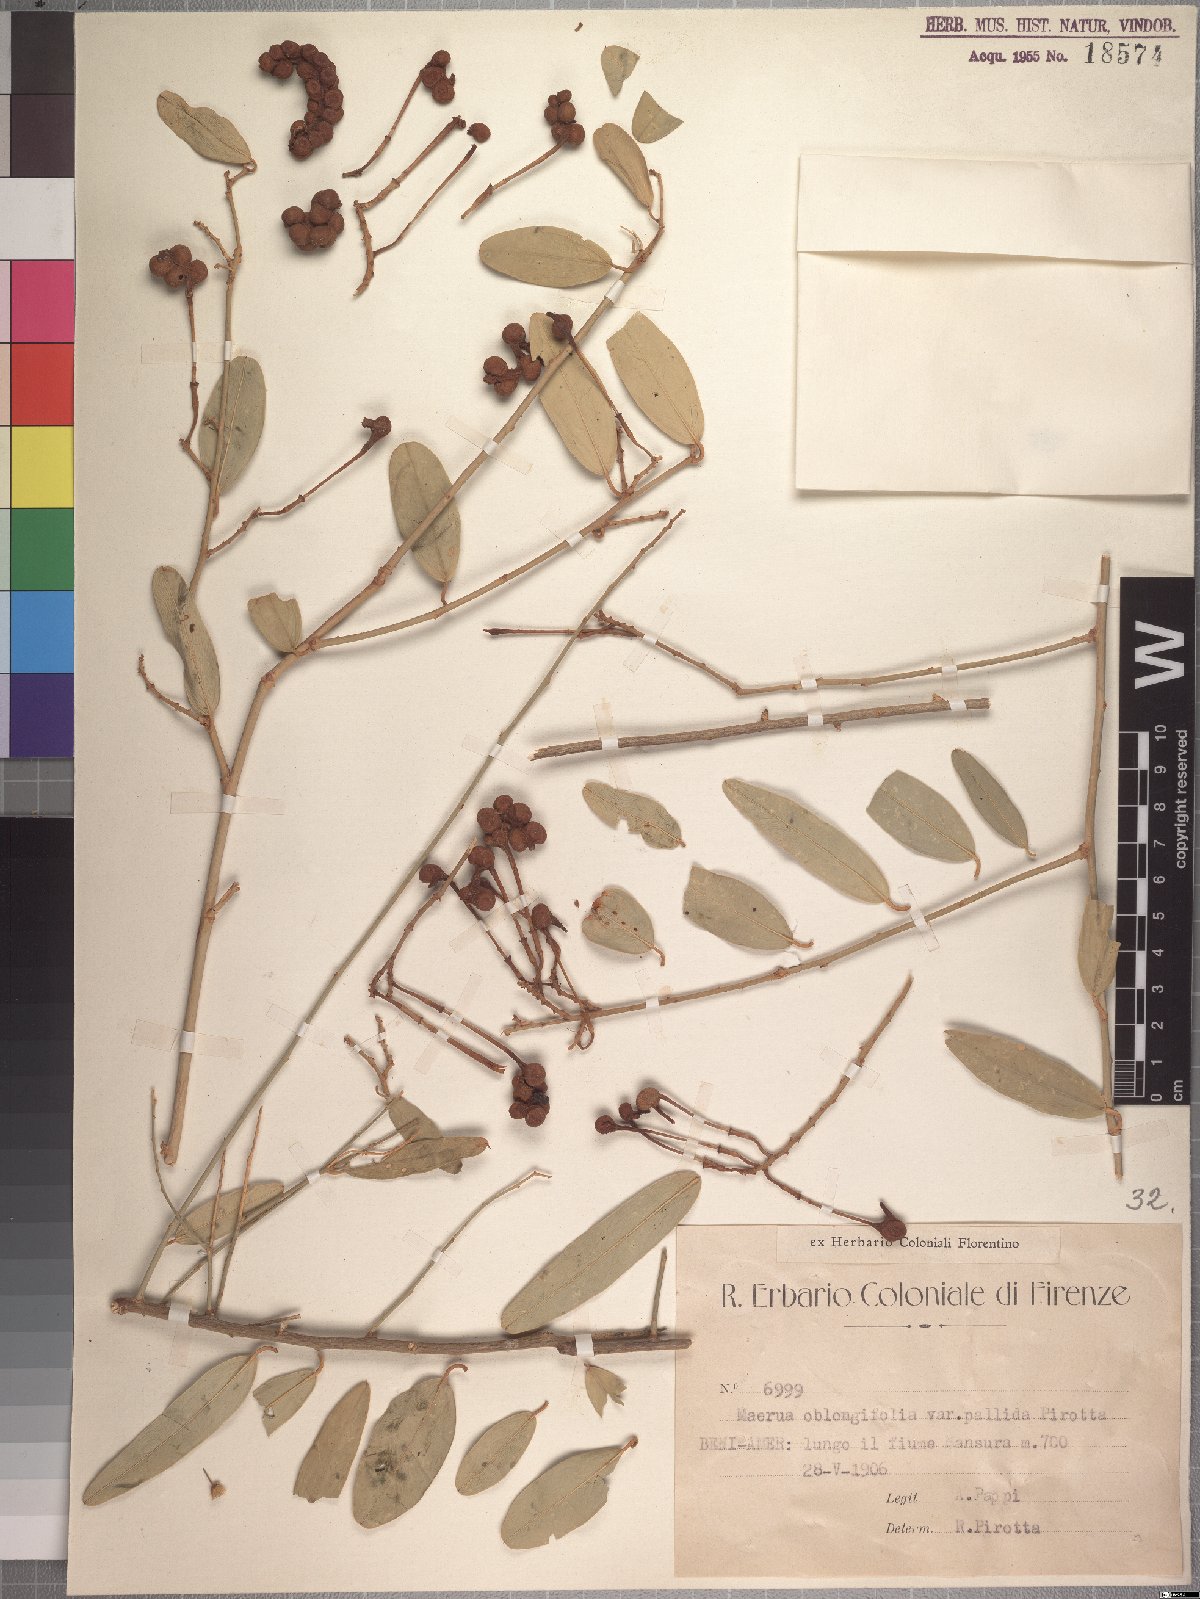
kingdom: Plantae
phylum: Tracheophyta
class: Magnoliopsida
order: Brassicales
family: Capparaceae
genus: Maerua
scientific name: Maerua oblongifolia
